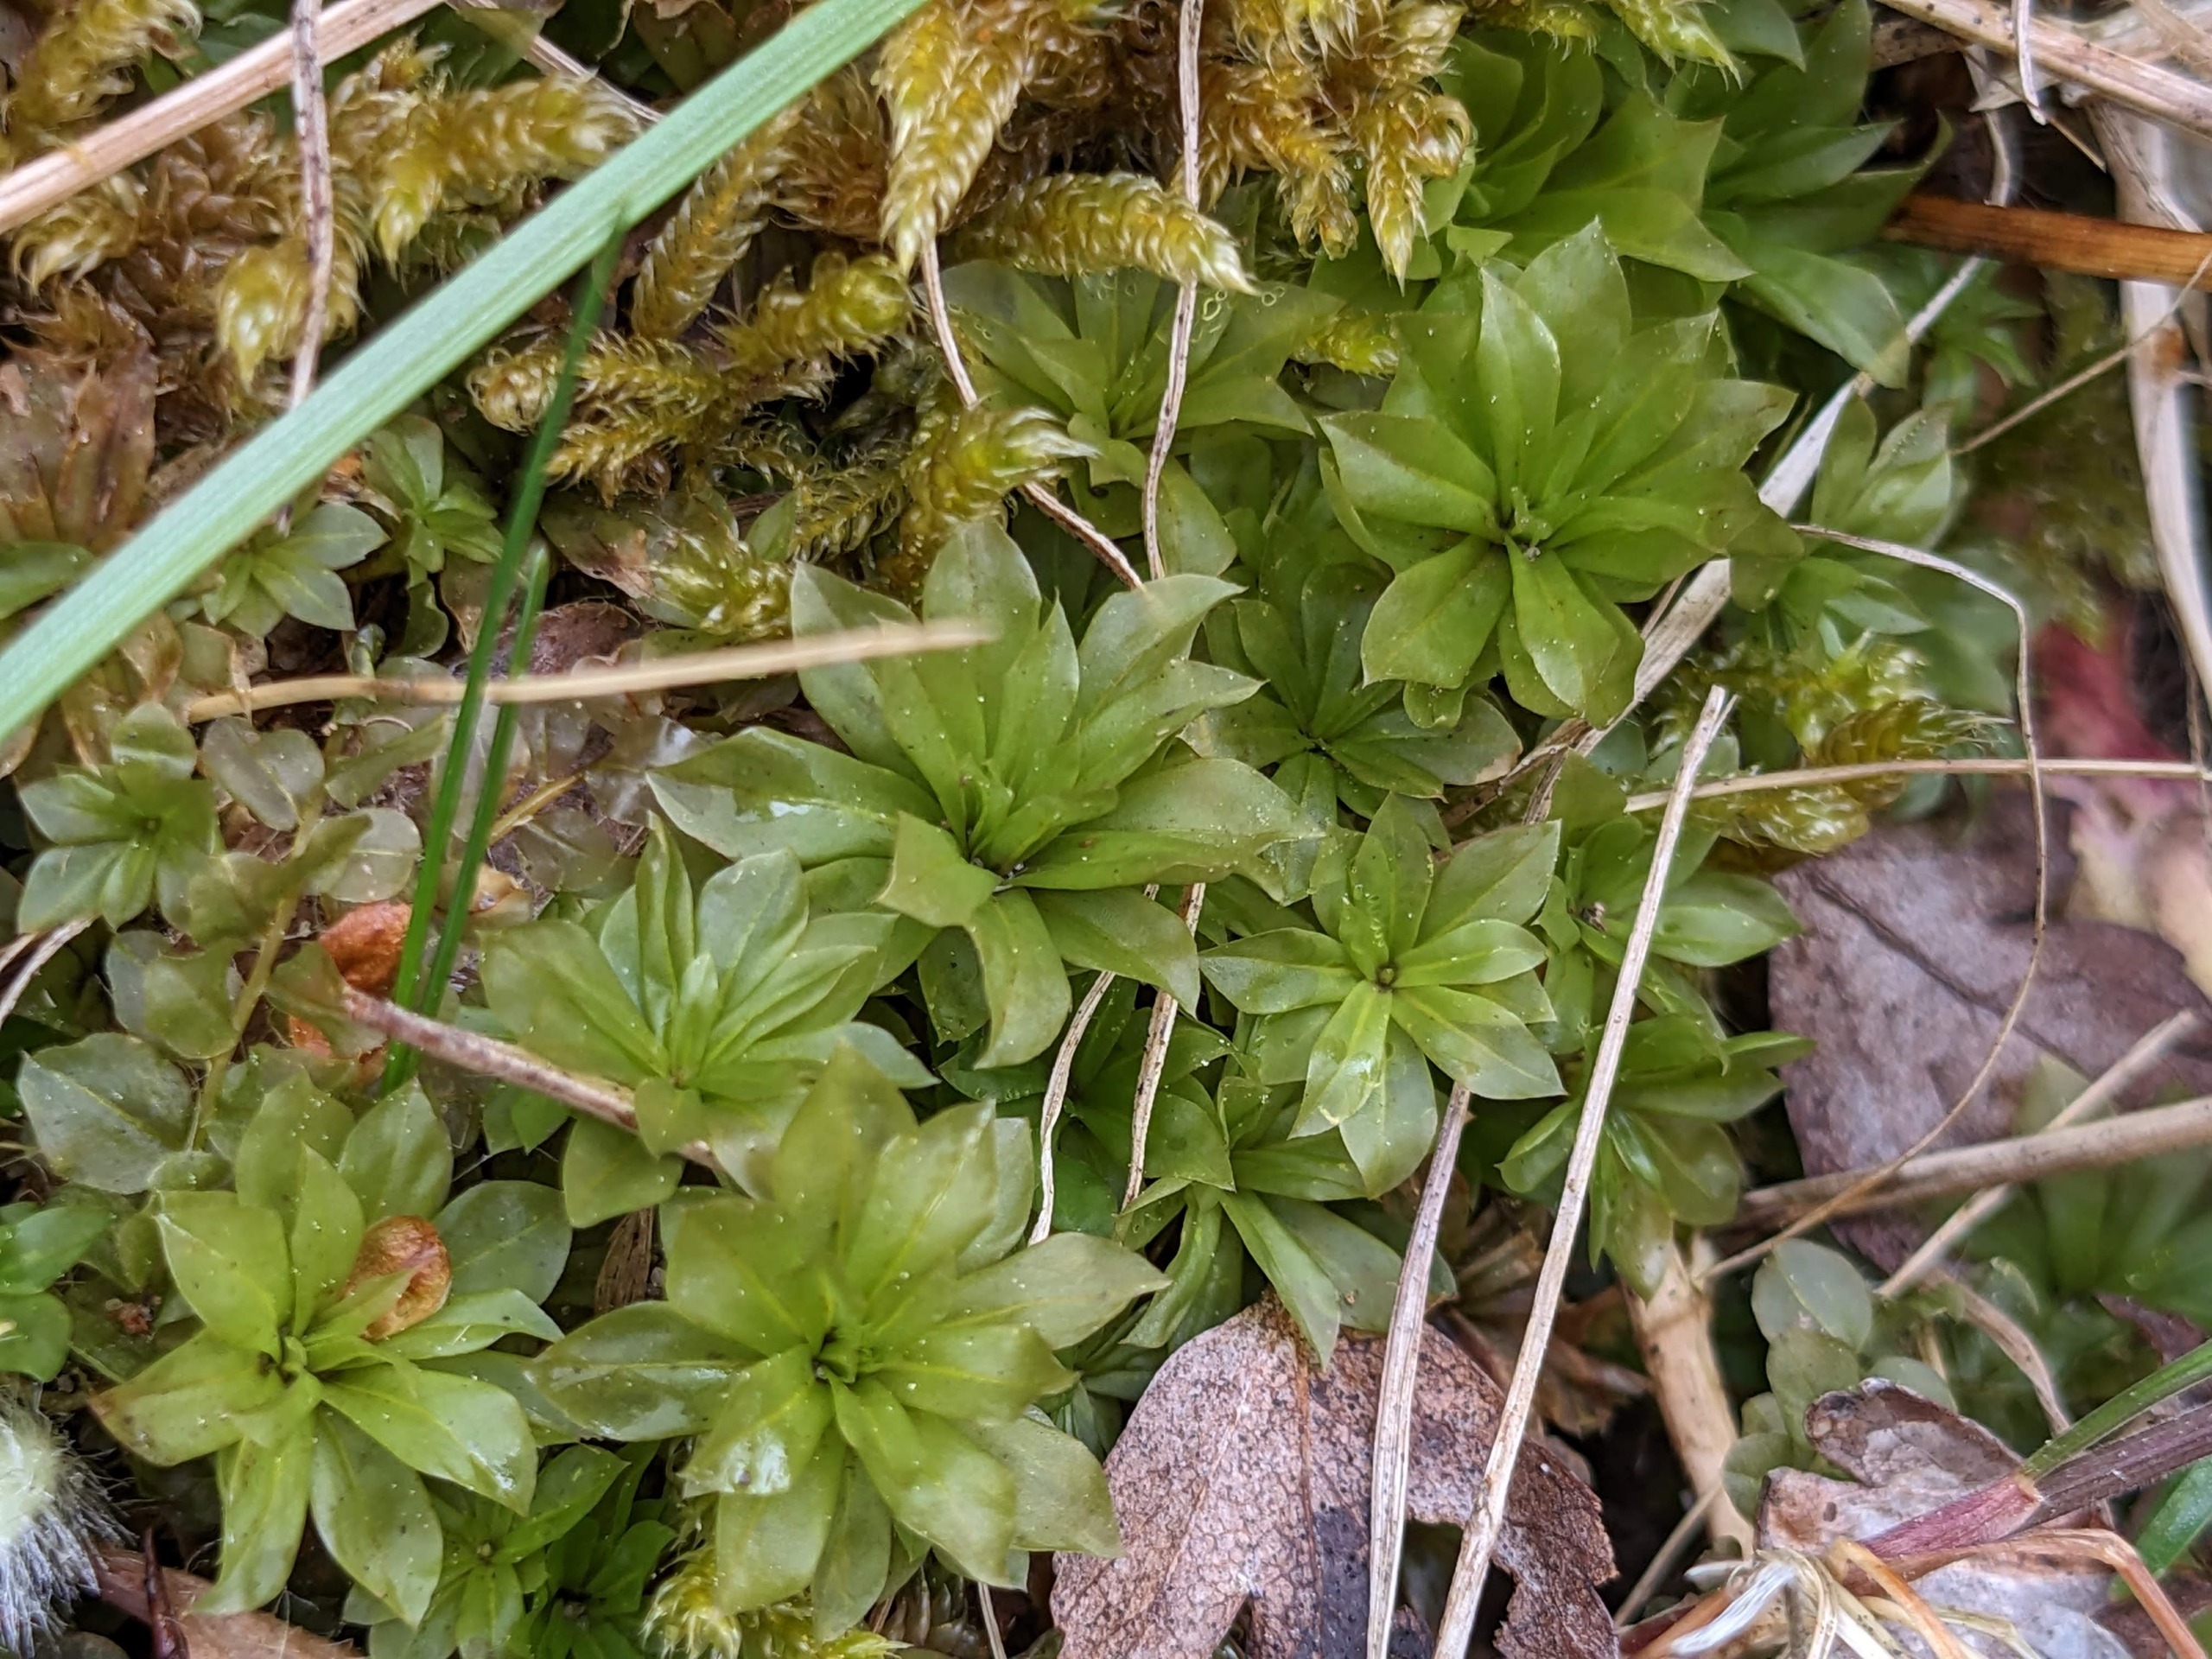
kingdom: Plantae
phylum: Bryophyta
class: Bryopsida
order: Bryales
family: Bryaceae
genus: Rhodobryum
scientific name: Rhodobryum roseum
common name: Stor rosetmos
